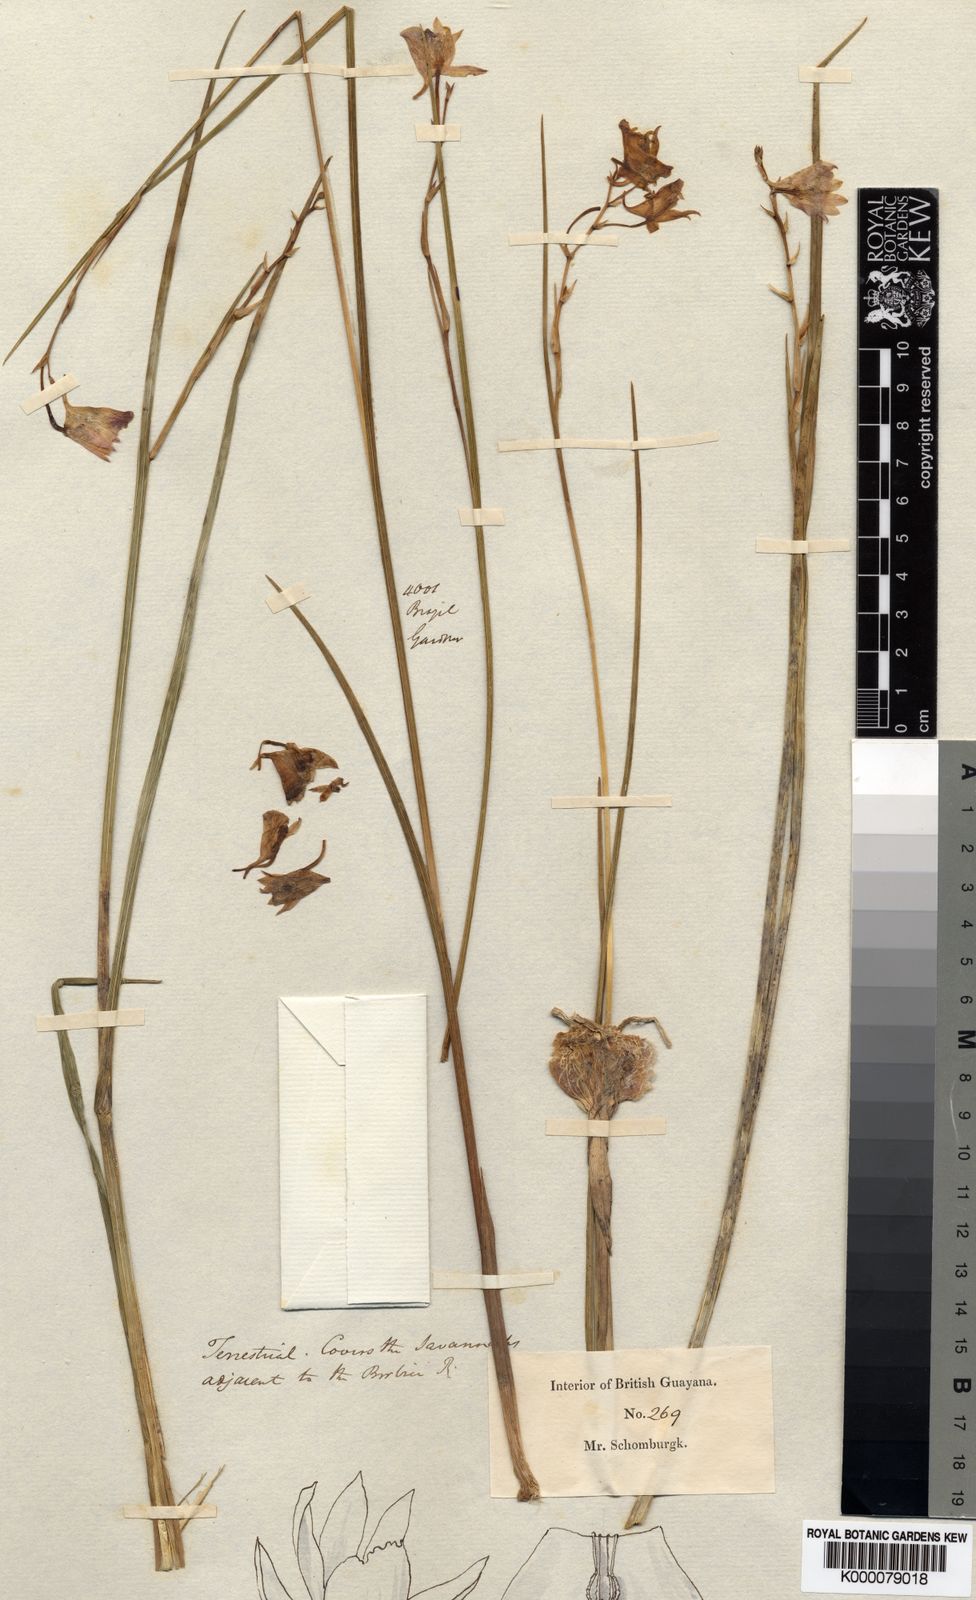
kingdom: Plantae
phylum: Tracheophyta
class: Liliopsida
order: Asparagales
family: Orchidaceae
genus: Galeandra
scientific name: Galeandra styllomisantha
